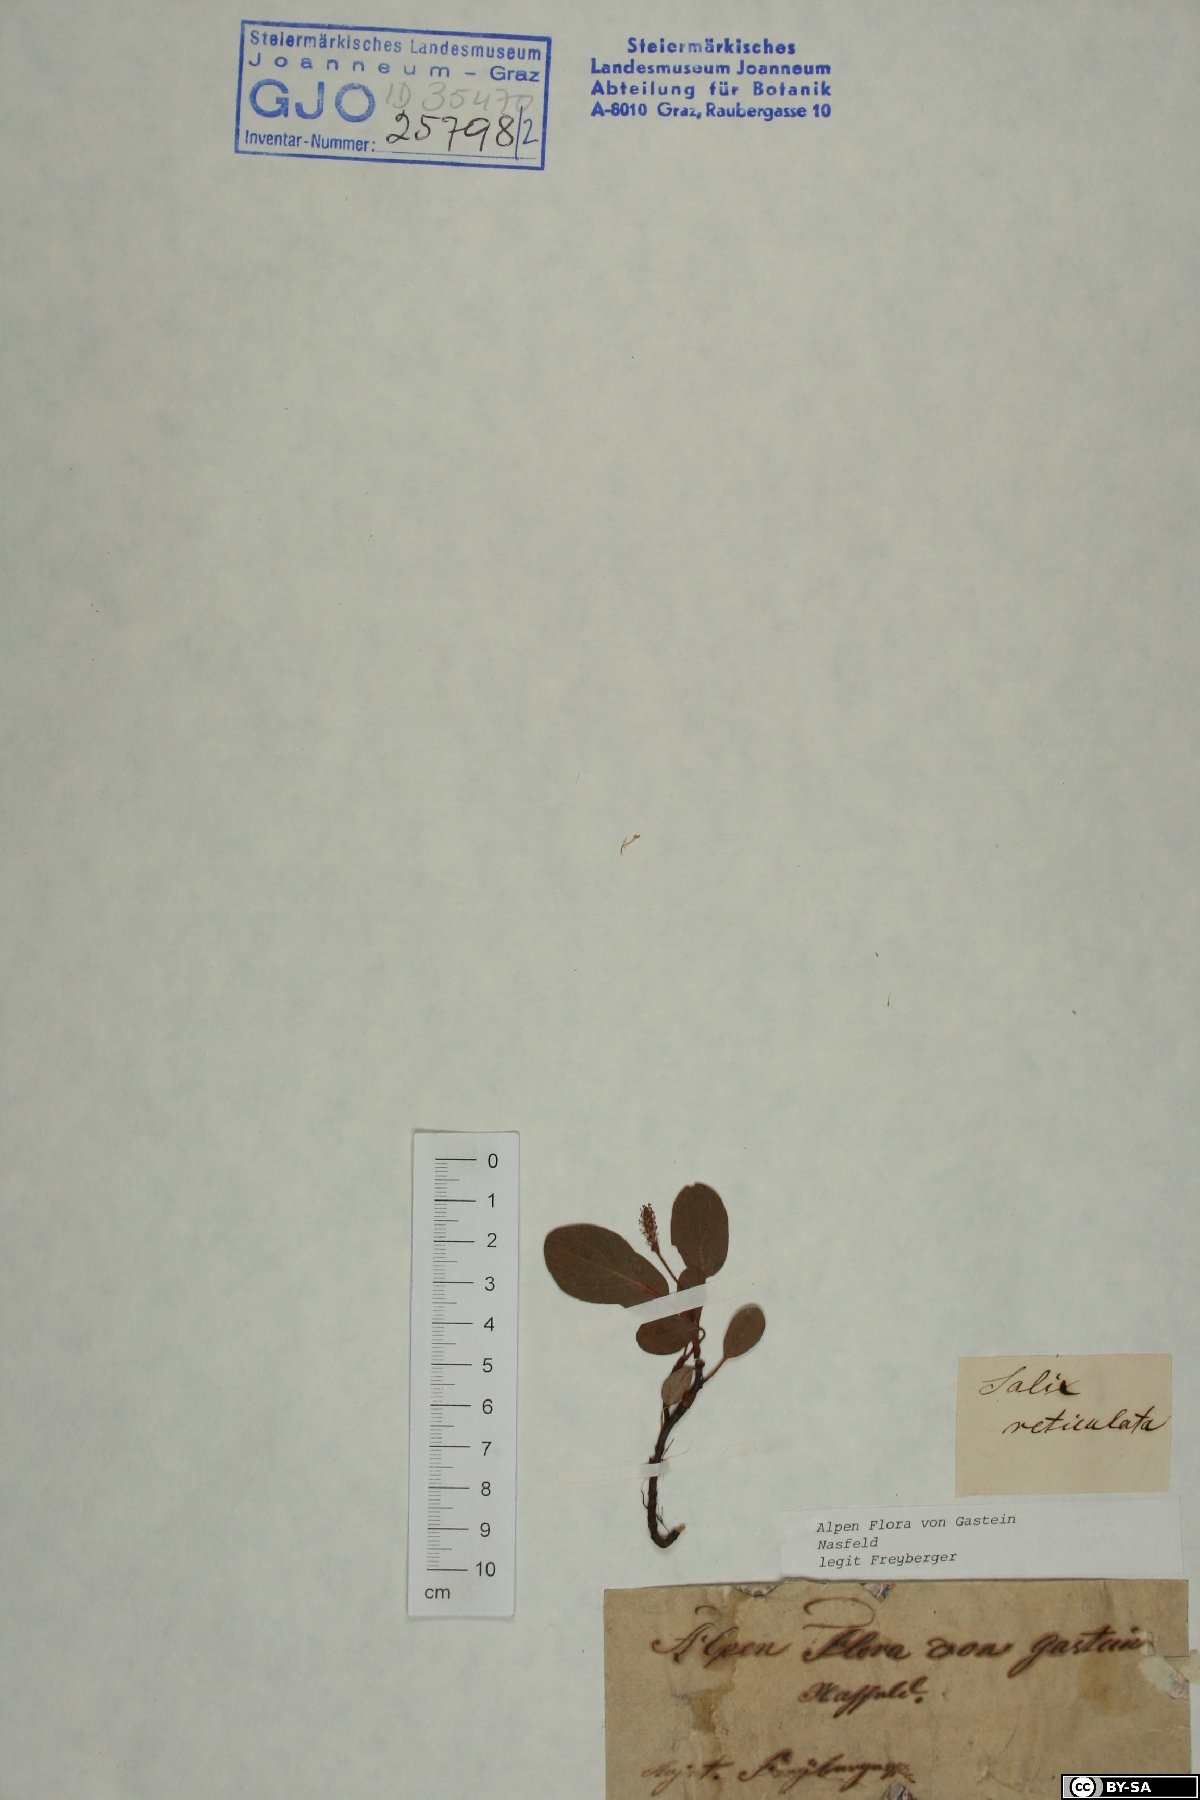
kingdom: Plantae
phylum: Tracheophyta
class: Magnoliopsida
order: Malpighiales
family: Salicaceae
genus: Salix
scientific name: Salix reticulata
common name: Net-leaved willow
